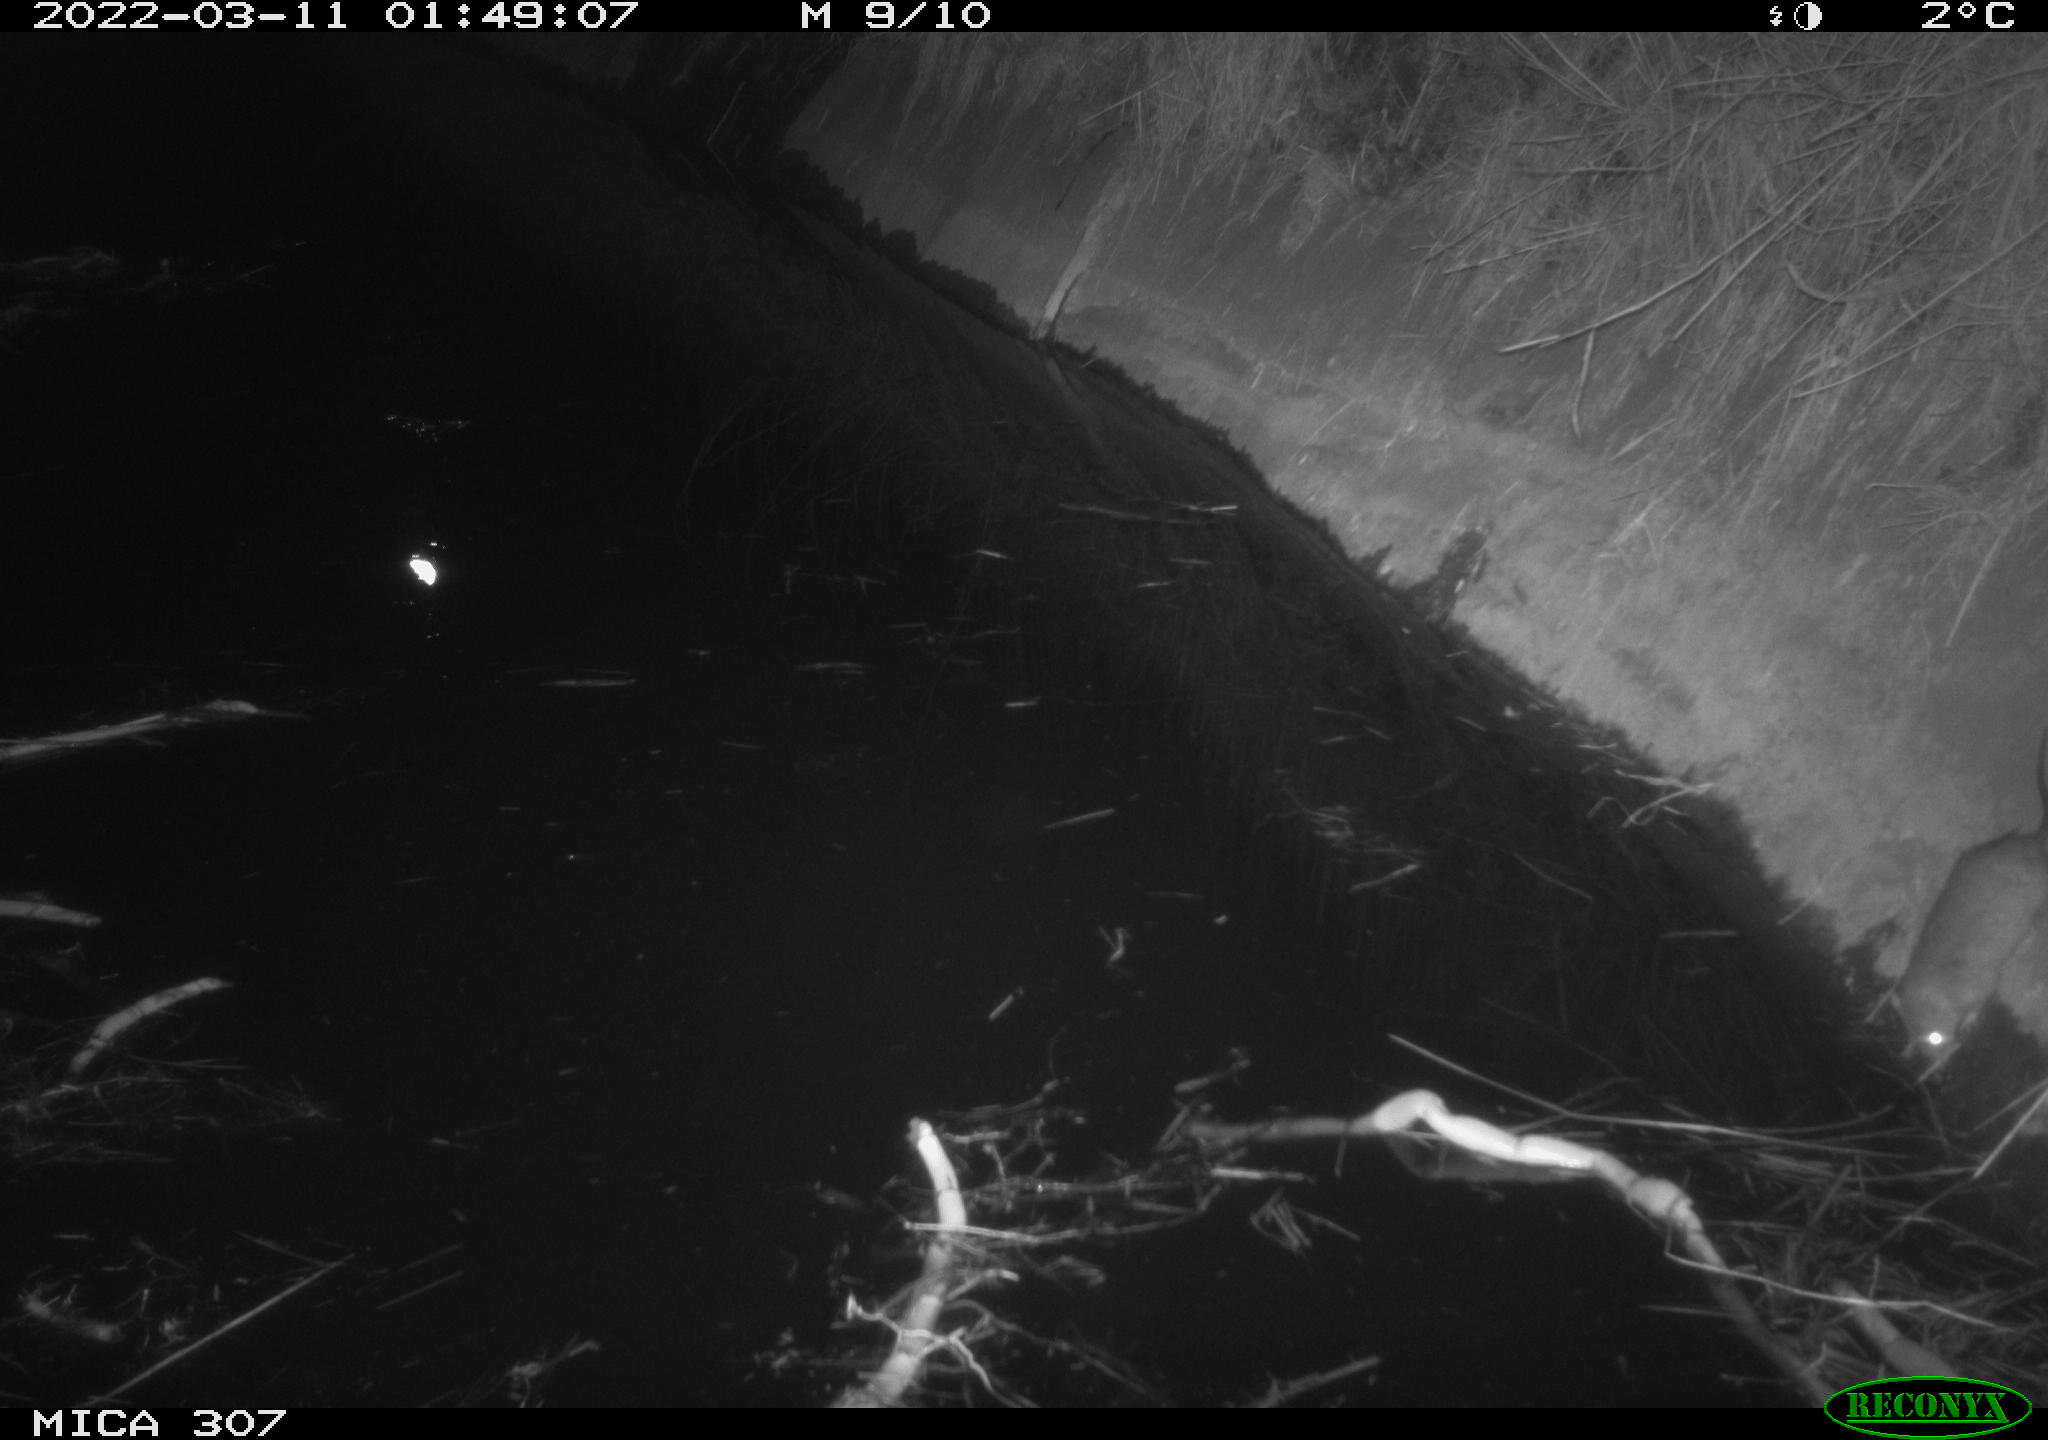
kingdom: Animalia
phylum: Chordata
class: Mammalia
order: Rodentia
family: Muridae
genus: Rattus
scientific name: Rattus norvegicus
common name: Brown rat
